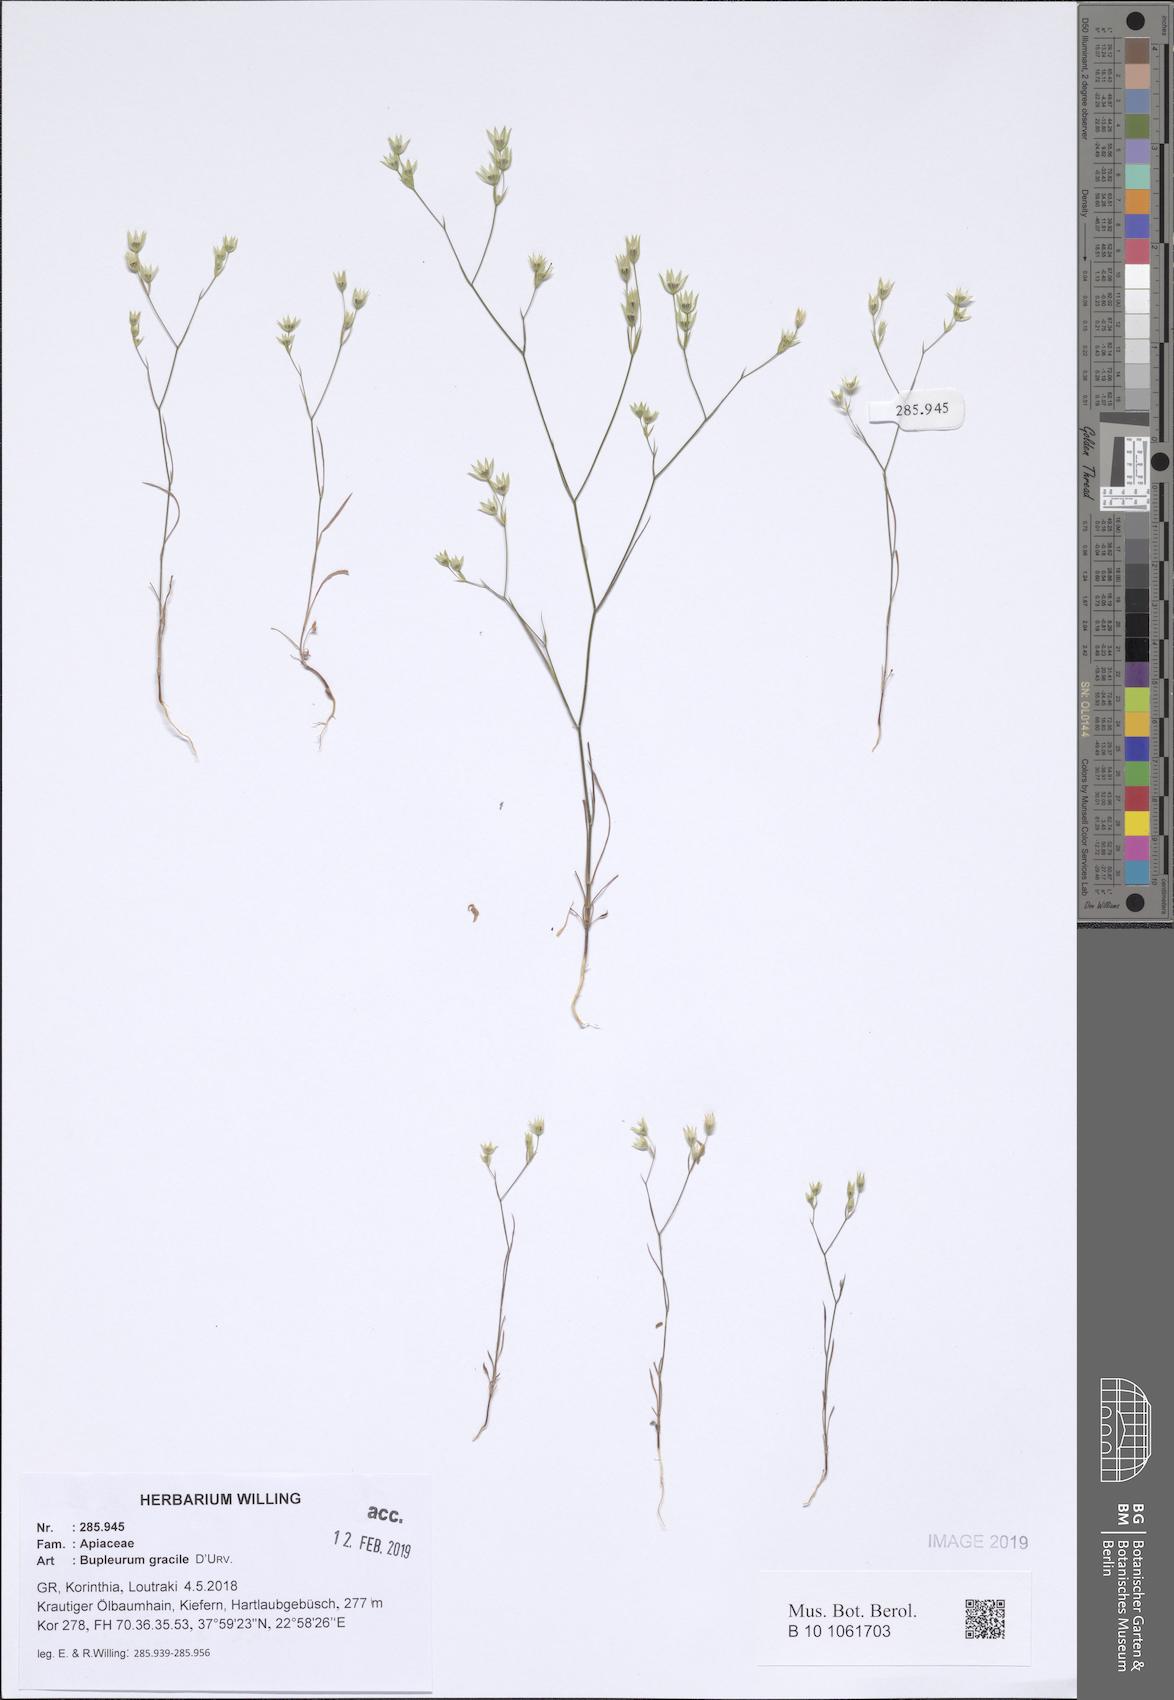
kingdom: Plantae
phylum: Tracheophyta
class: Magnoliopsida
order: Apiales
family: Apiaceae
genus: Bupleurum
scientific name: Bupleurum gracile
